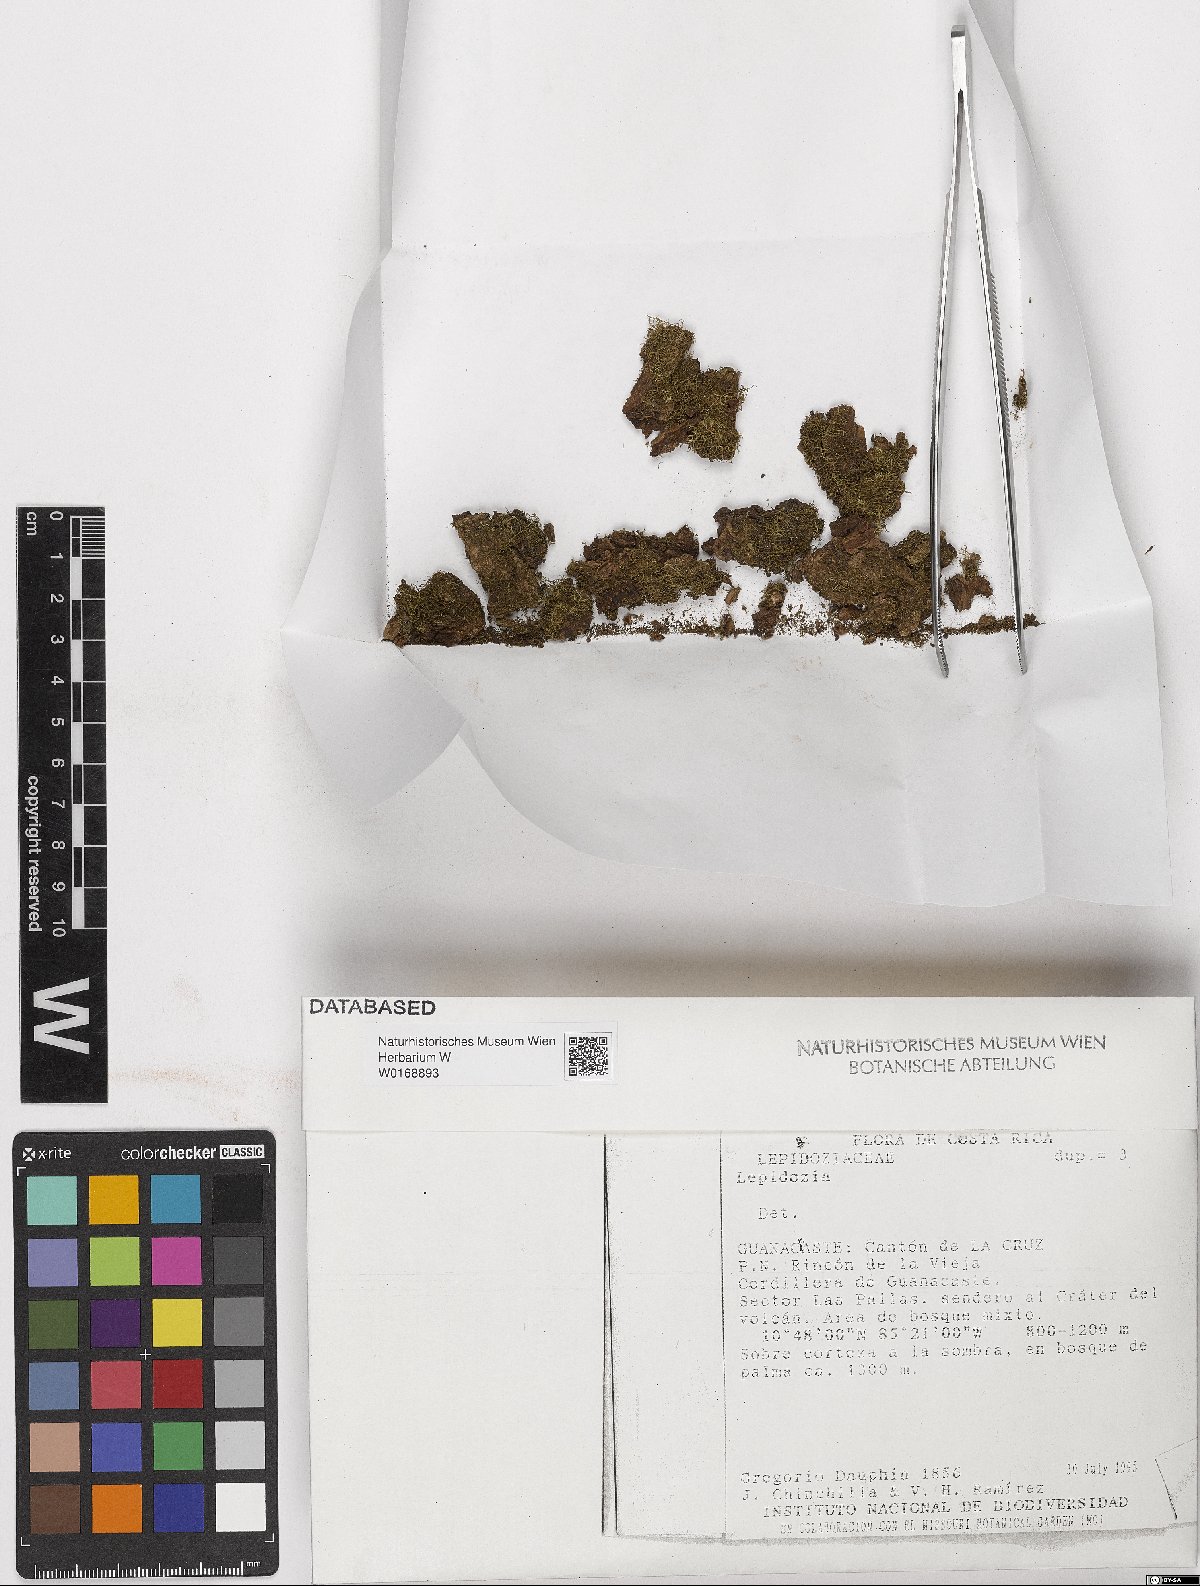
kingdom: Plantae
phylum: Marchantiophyta
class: Jungermanniopsida
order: Jungermanniales
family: Lepidoziaceae
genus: Lepidozia
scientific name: Lepidozia
